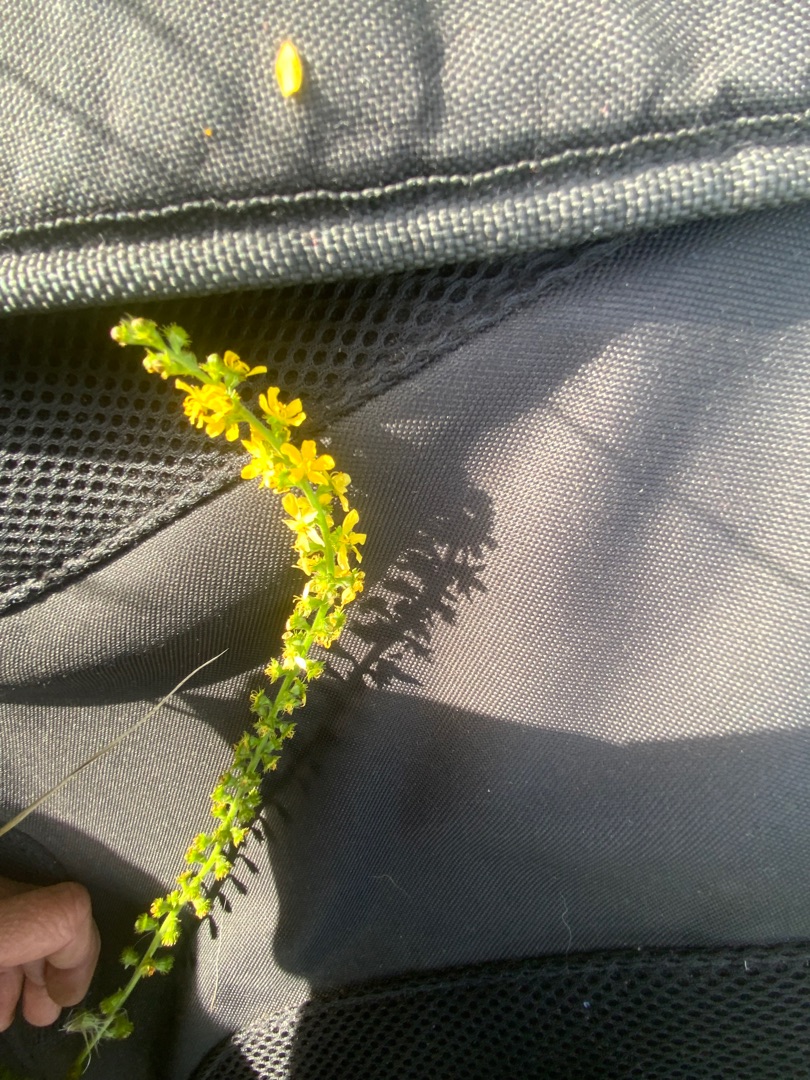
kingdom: Plantae
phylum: Tracheophyta
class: Magnoliopsida
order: Rosales
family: Rosaceae
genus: Agrimonia
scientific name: Agrimonia eupatoria
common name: Almindelig agermåne
